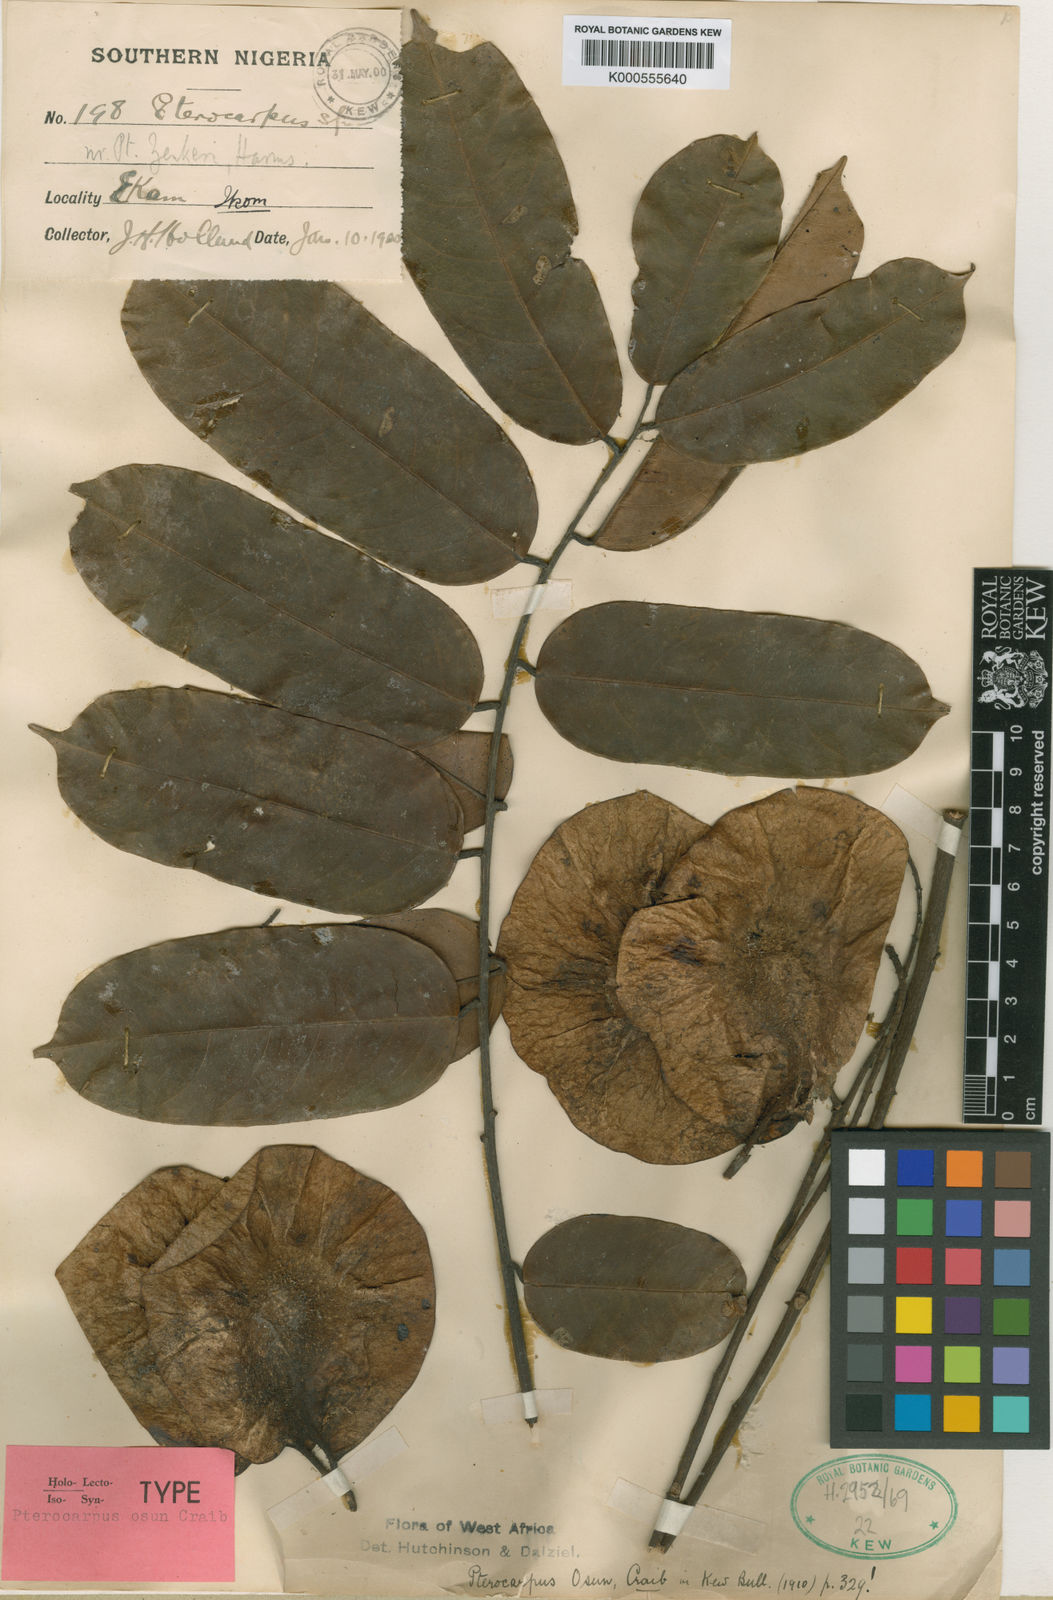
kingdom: Plantae
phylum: Tracheophyta
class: Magnoliopsida
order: Fabales
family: Fabaceae
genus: Pterocarpus
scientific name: Pterocarpus osun
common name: Camwood
